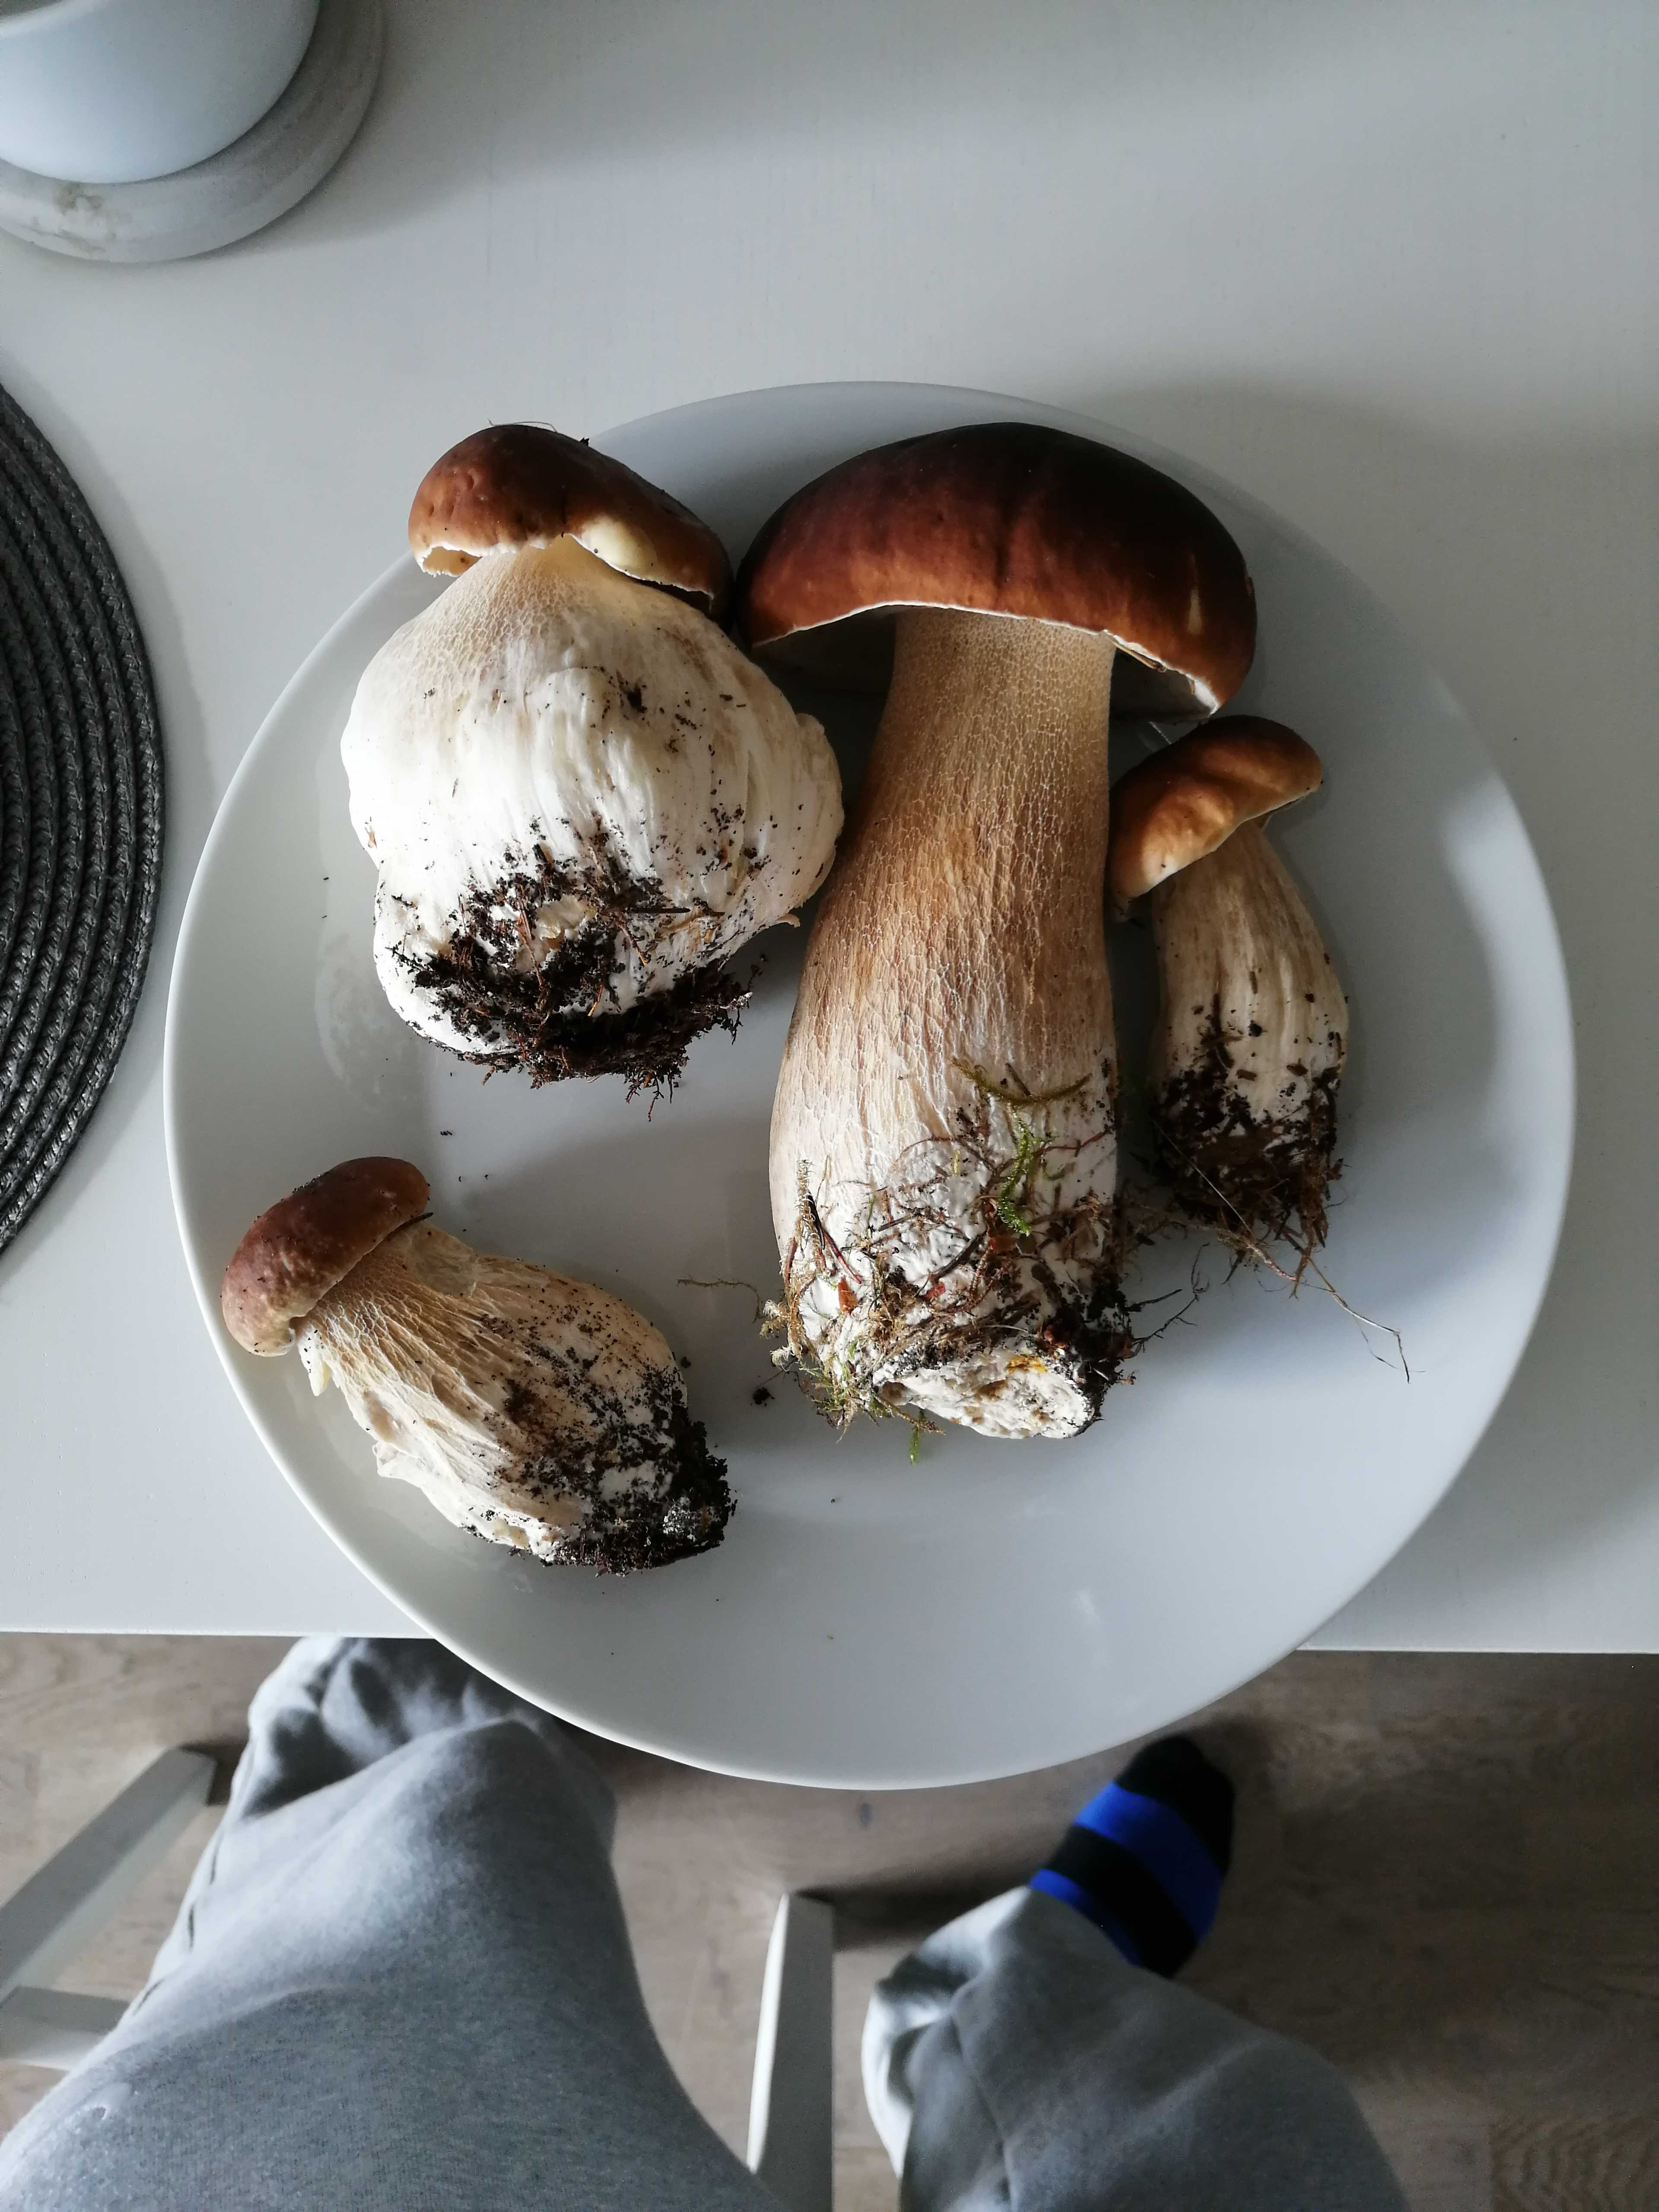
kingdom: Fungi
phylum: Basidiomycota
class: Agaricomycetes
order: Boletales
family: Boletaceae
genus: Boletus
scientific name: Boletus edulis
